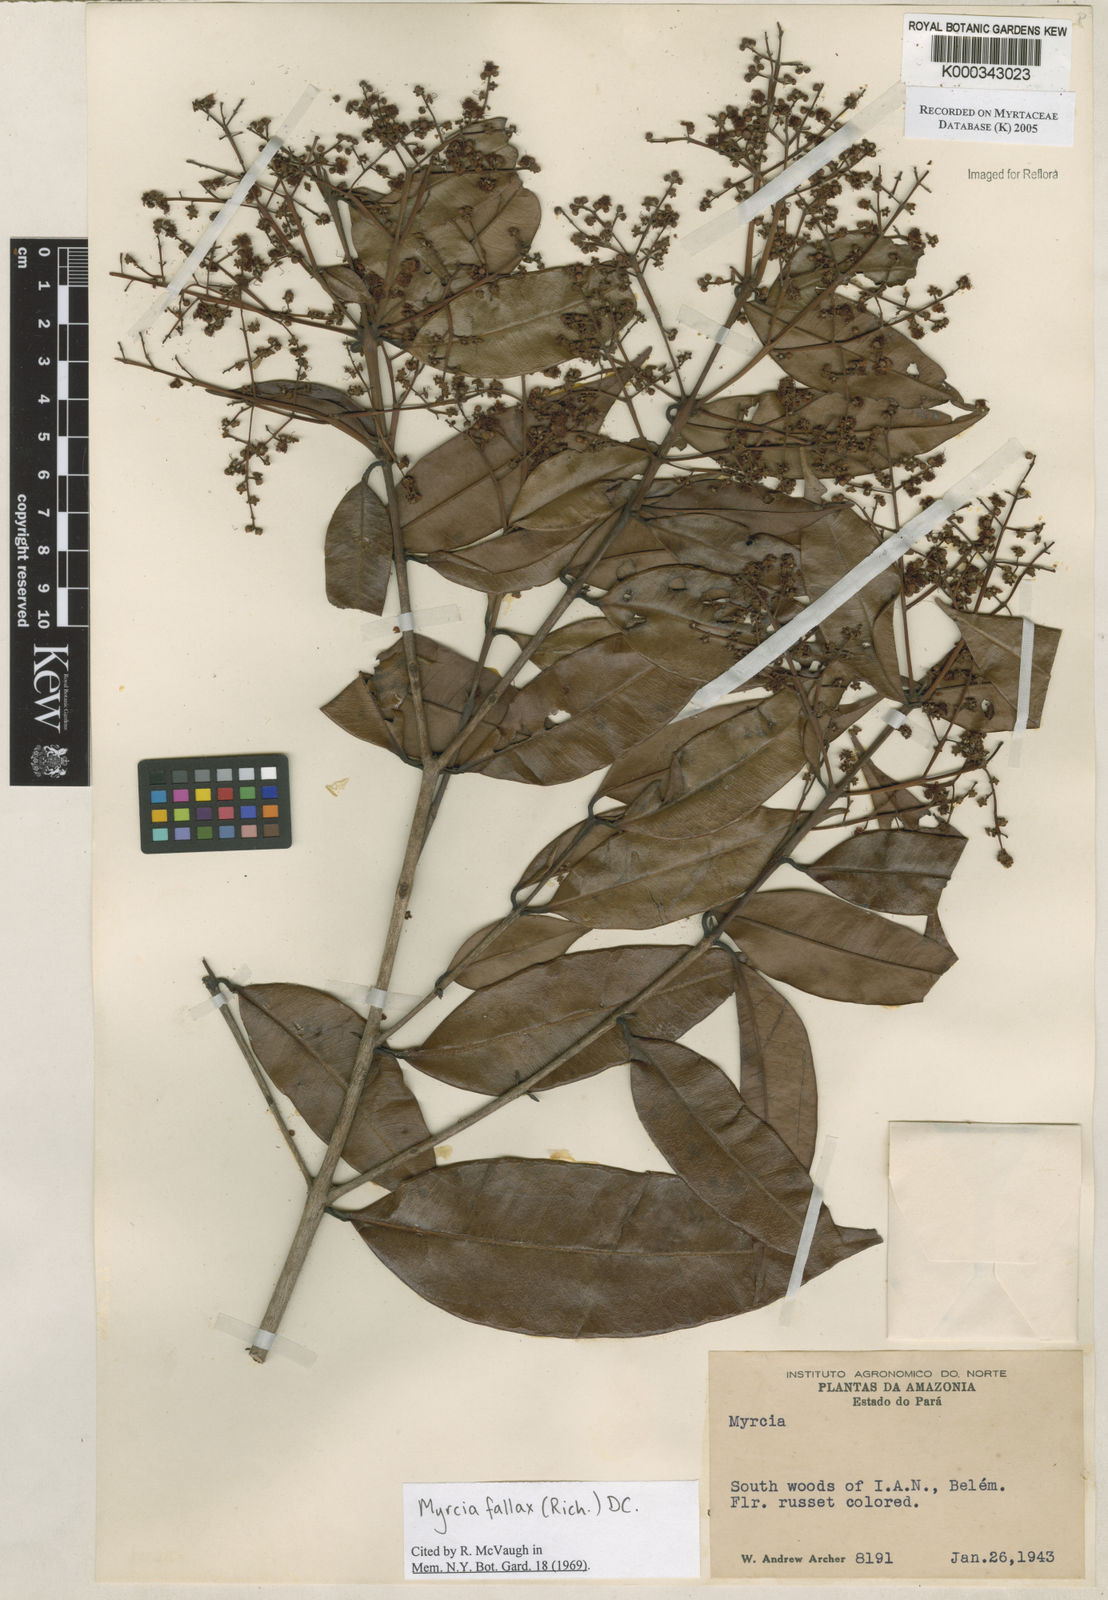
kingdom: Plantae
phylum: Tracheophyta
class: Magnoliopsida
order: Myrtales
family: Myrtaceae
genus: Myrcia
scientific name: Myrcia splendens
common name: Surinam cherry
